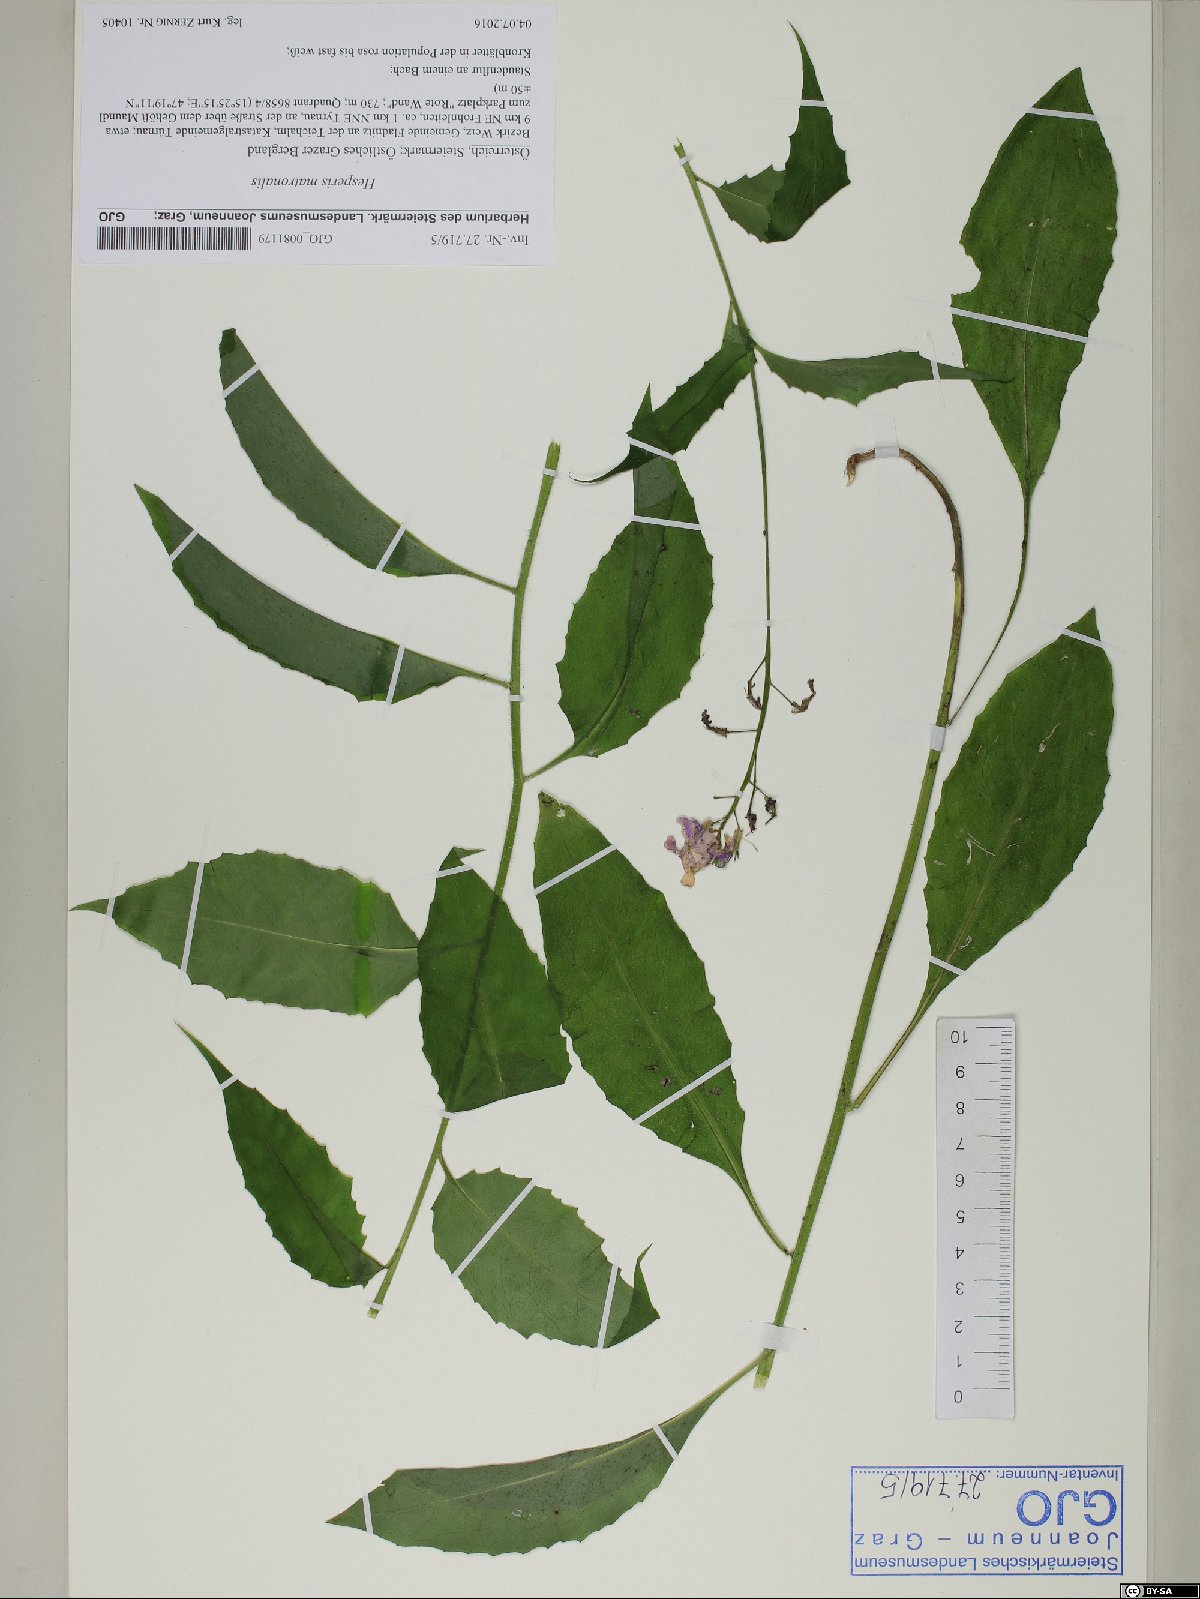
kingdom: Plantae
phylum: Tracheophyta
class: Magnoliopsida
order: Brassicales
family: Brassicaceae
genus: Hesperis
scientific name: Hesperis matronalis
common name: Dame's-violet
